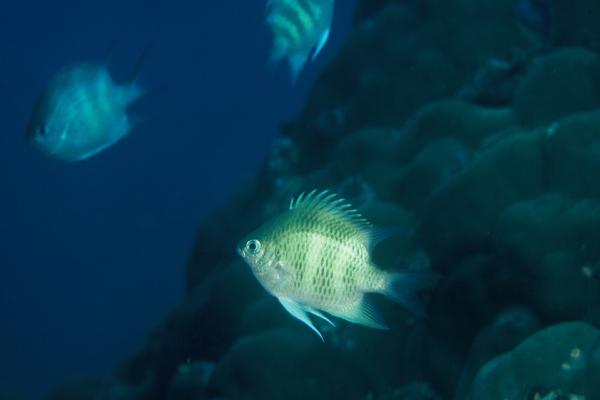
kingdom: Animalia
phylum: Chordata
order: Perciformes
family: Pomacentridae
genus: Amblyglyphidodon
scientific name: Amblyglyphidodon curacao
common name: Staghorn damsel
